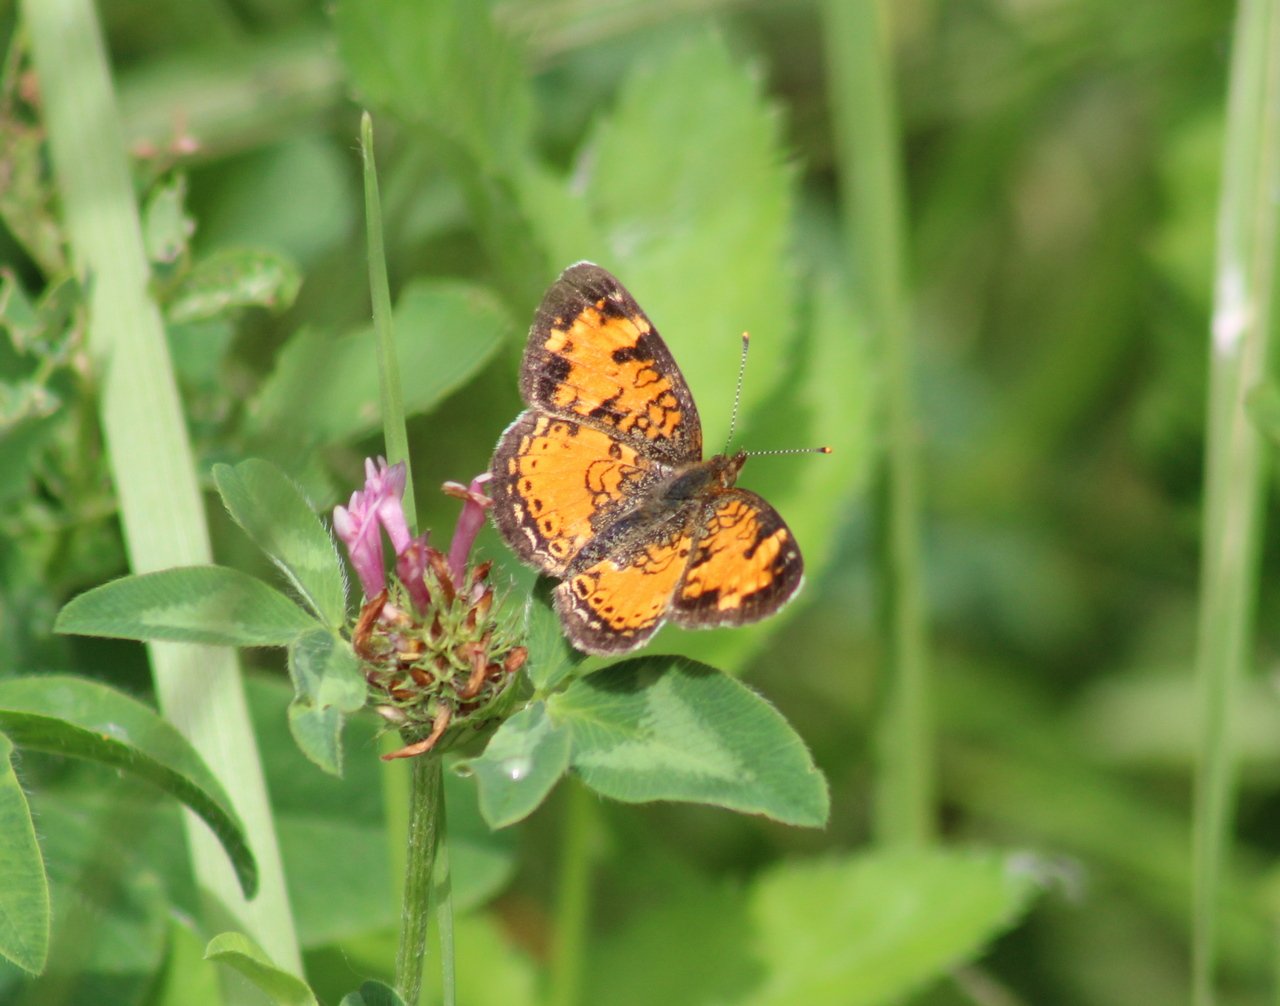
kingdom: Animalia
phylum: Arthropoda
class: Insecta
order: Lepidoptera
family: Nymphalidae
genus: Phyciodes
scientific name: Phyciodes tharos
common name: Northern Crescent
